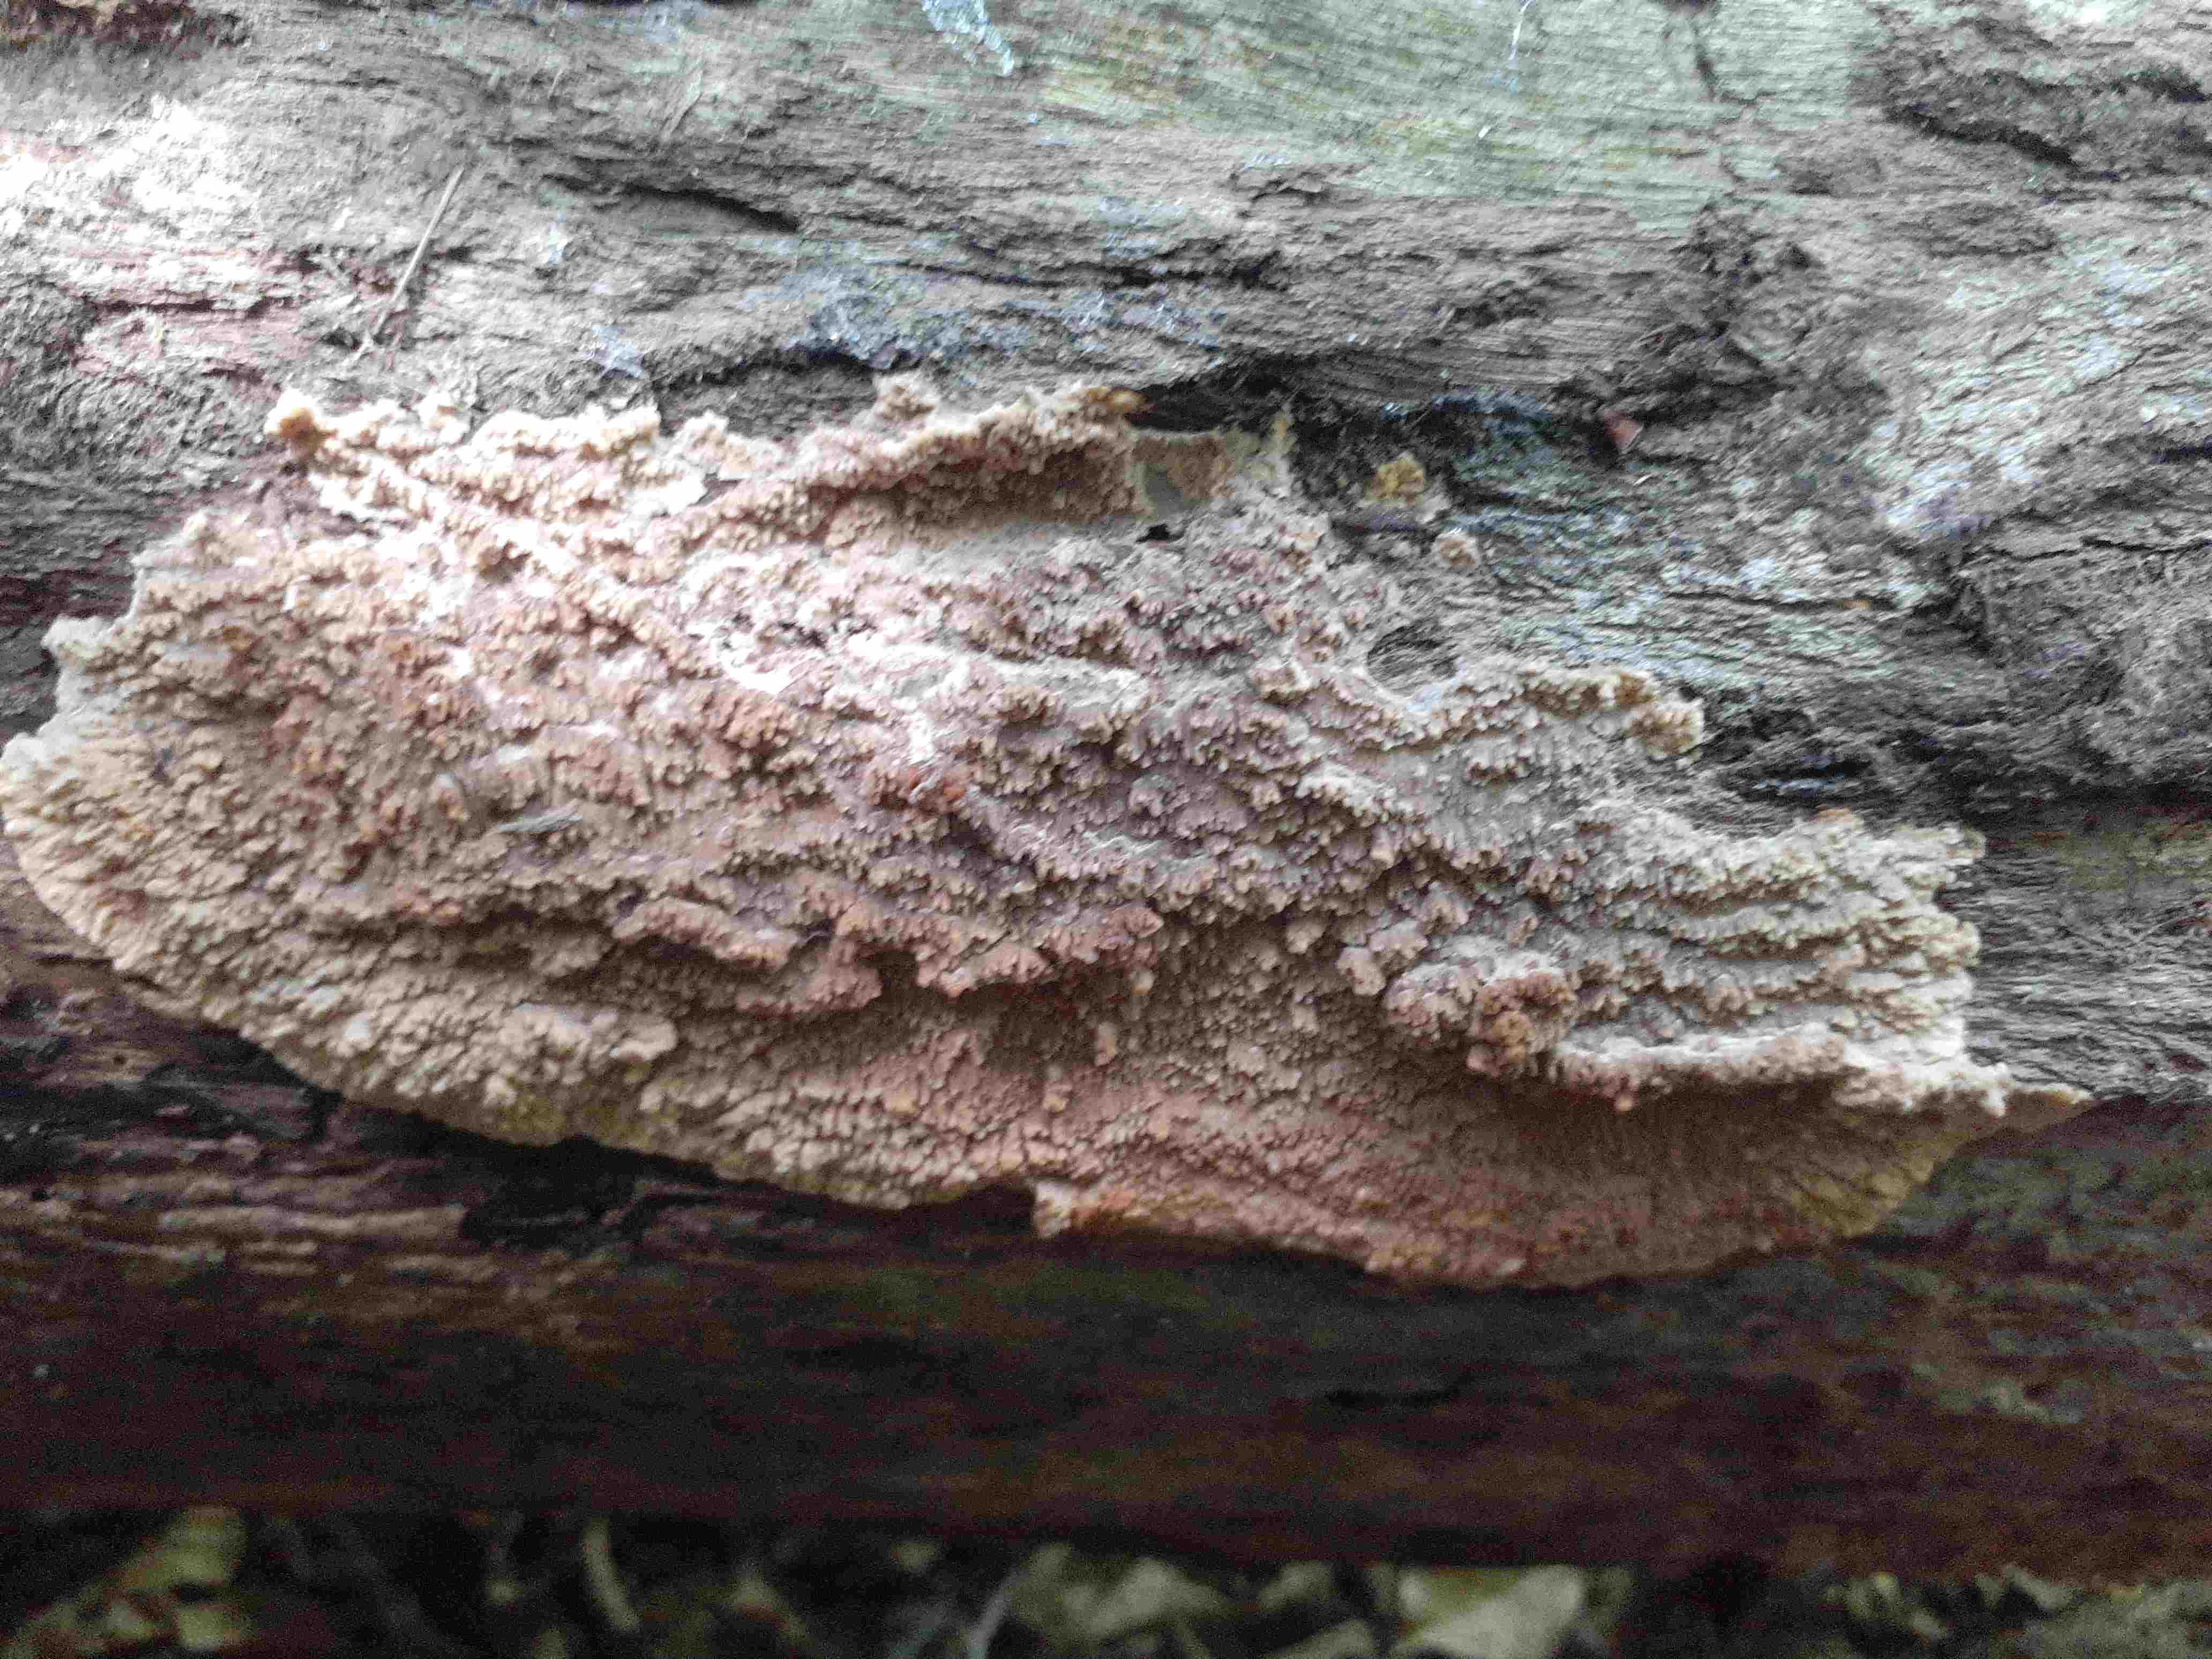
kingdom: Fungi
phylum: Basidiomycota
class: Agaricomycetes
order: Polyporales
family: Meruliaceae
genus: Phlebia
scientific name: Phlebia rufa
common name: ege-åresvamp
